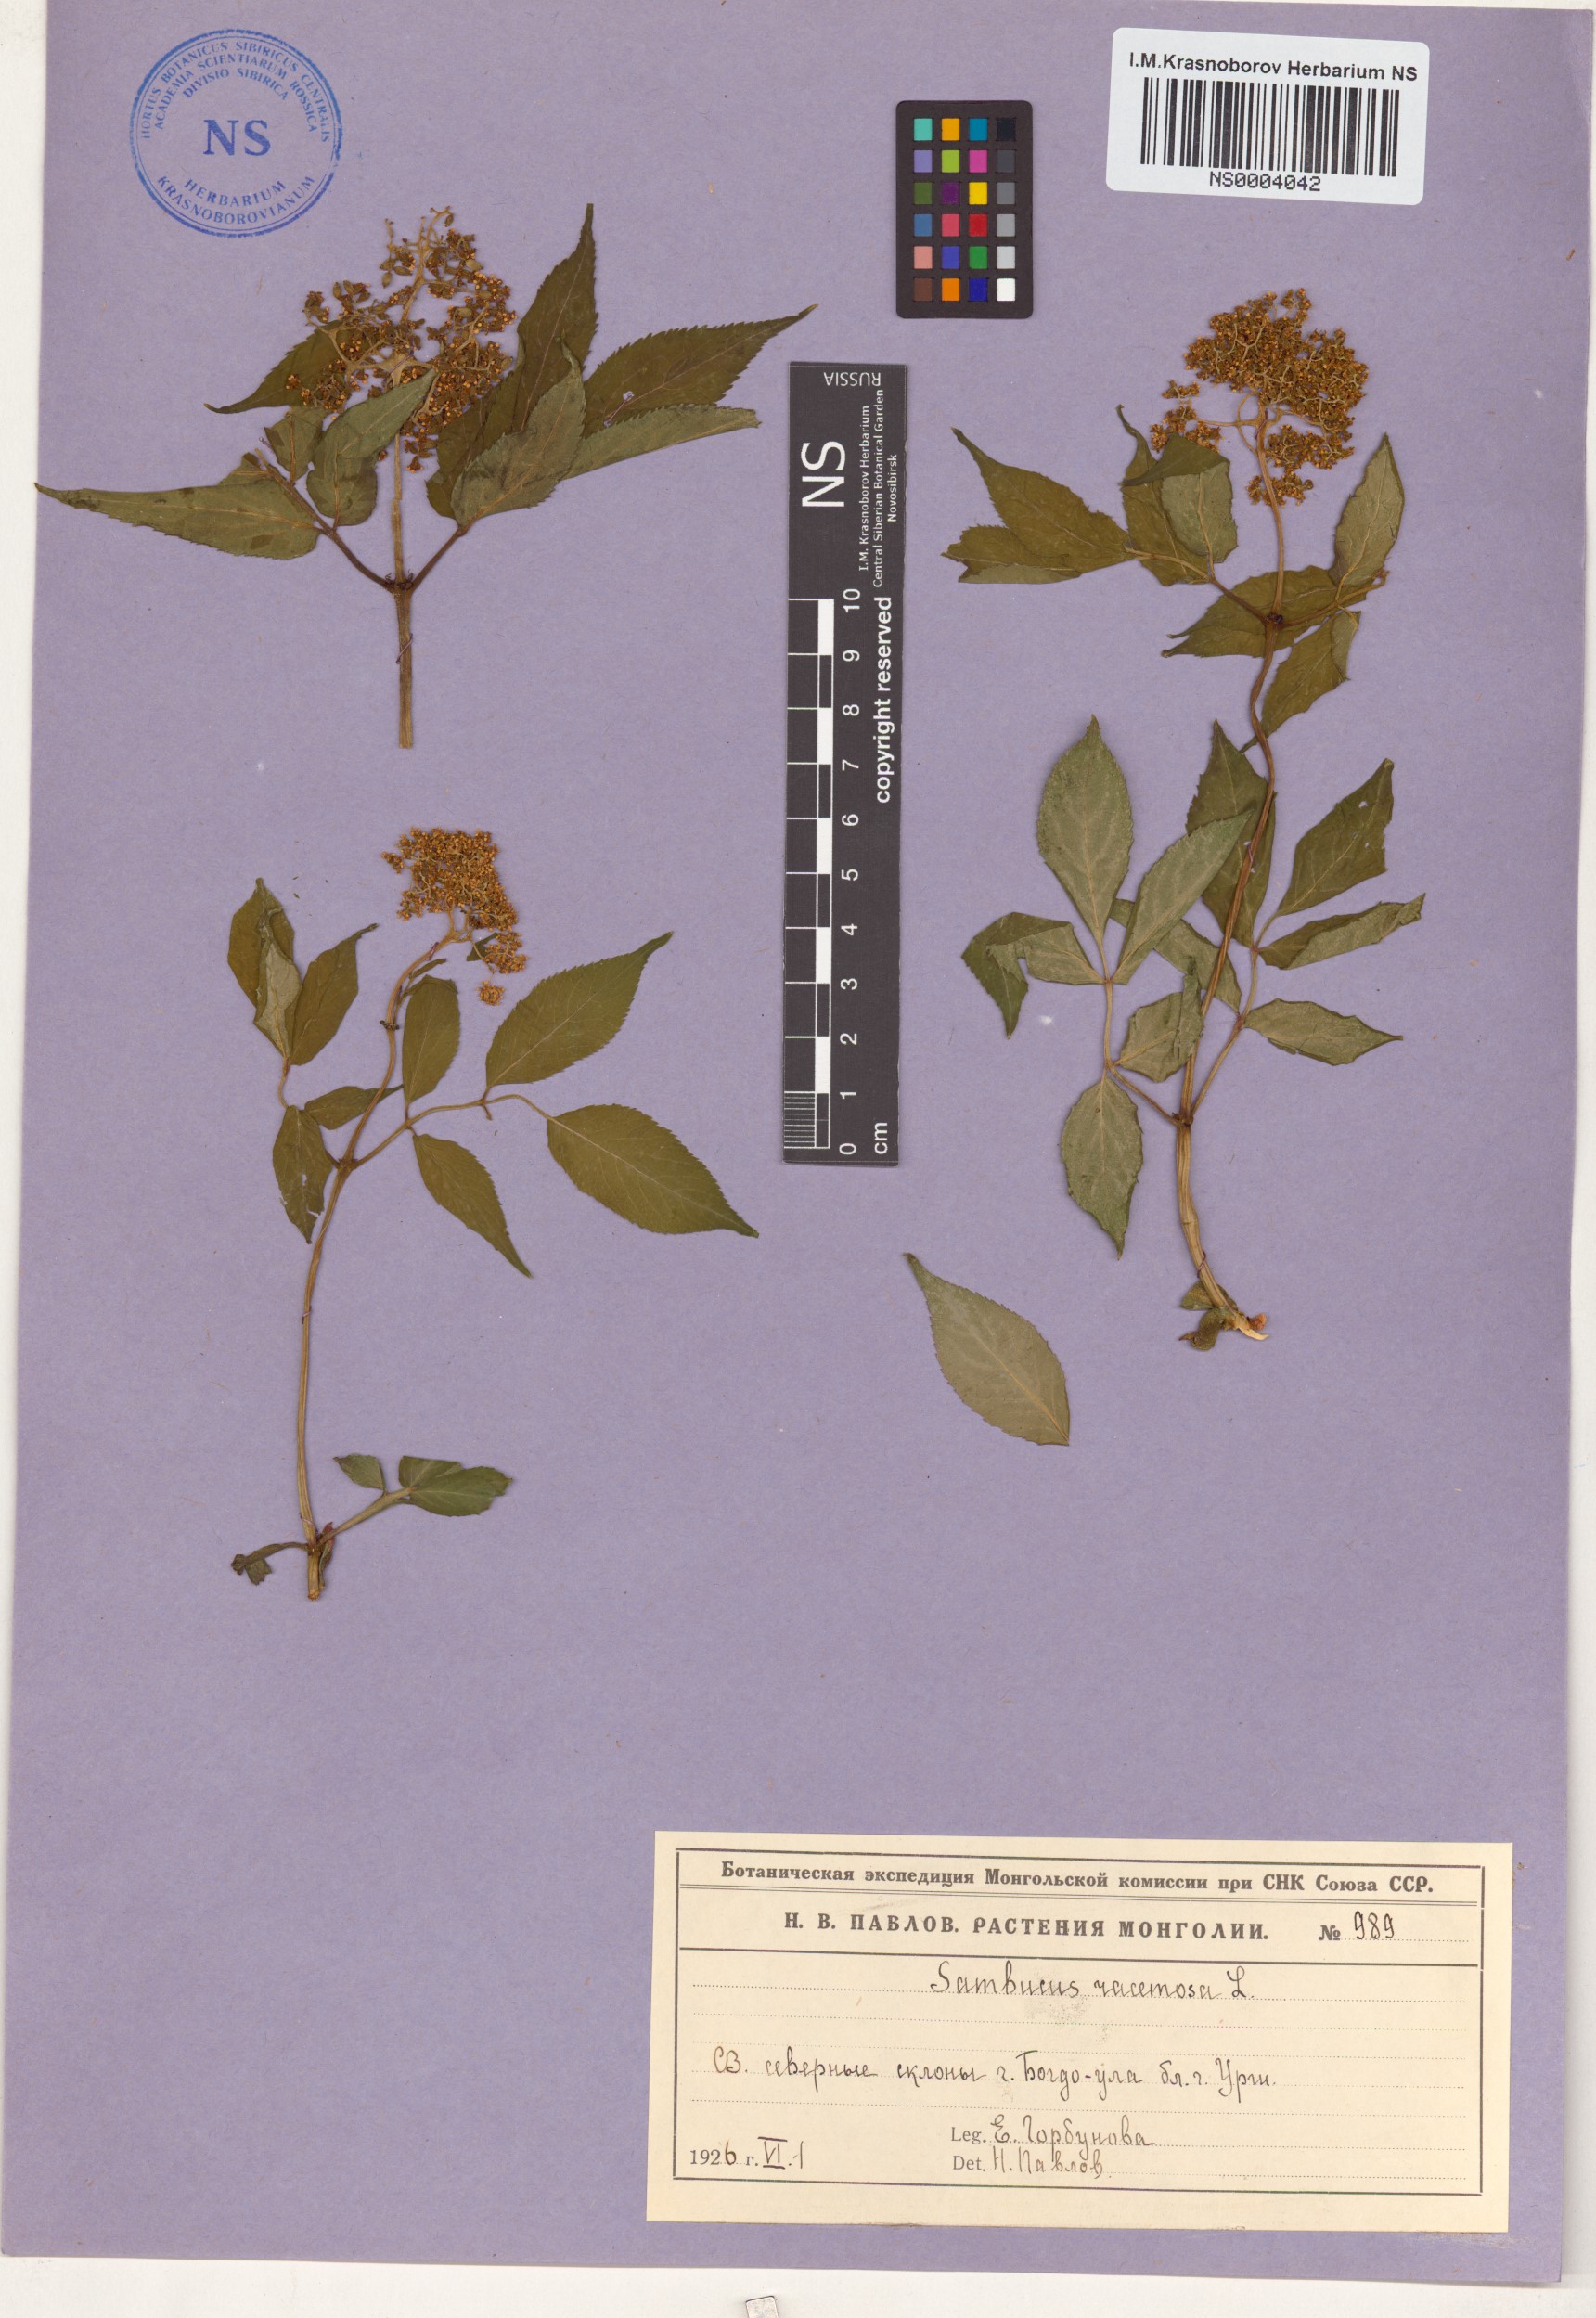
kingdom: Plantae
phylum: Tracheophyta
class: Magnoliopsida
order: Dipsacales
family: Viburnaceae
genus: Sambucus
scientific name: Sambucus racemosa
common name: Red-berried elder
